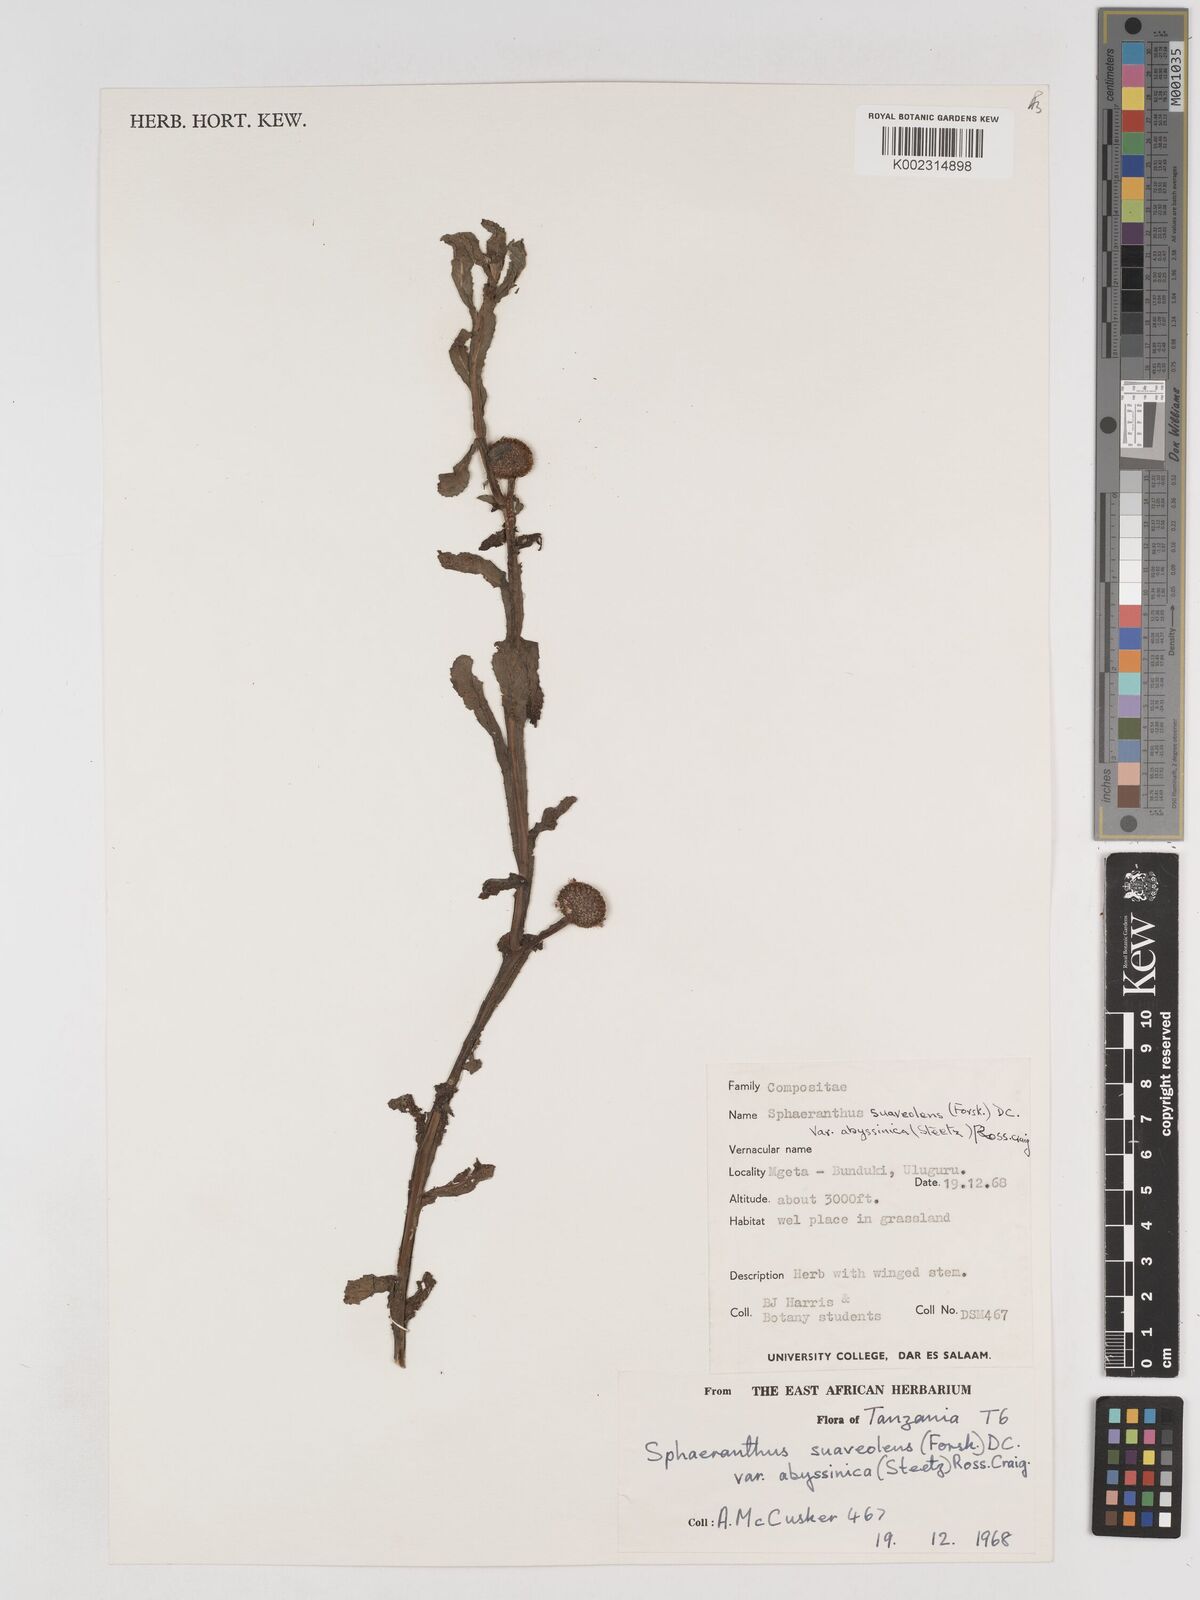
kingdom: Plantae
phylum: Tracheophyta
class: Magnoliopsida
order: Asterales
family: Asteraceae
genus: Sphaeranthus
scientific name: Sphaeranthus suaveolens
